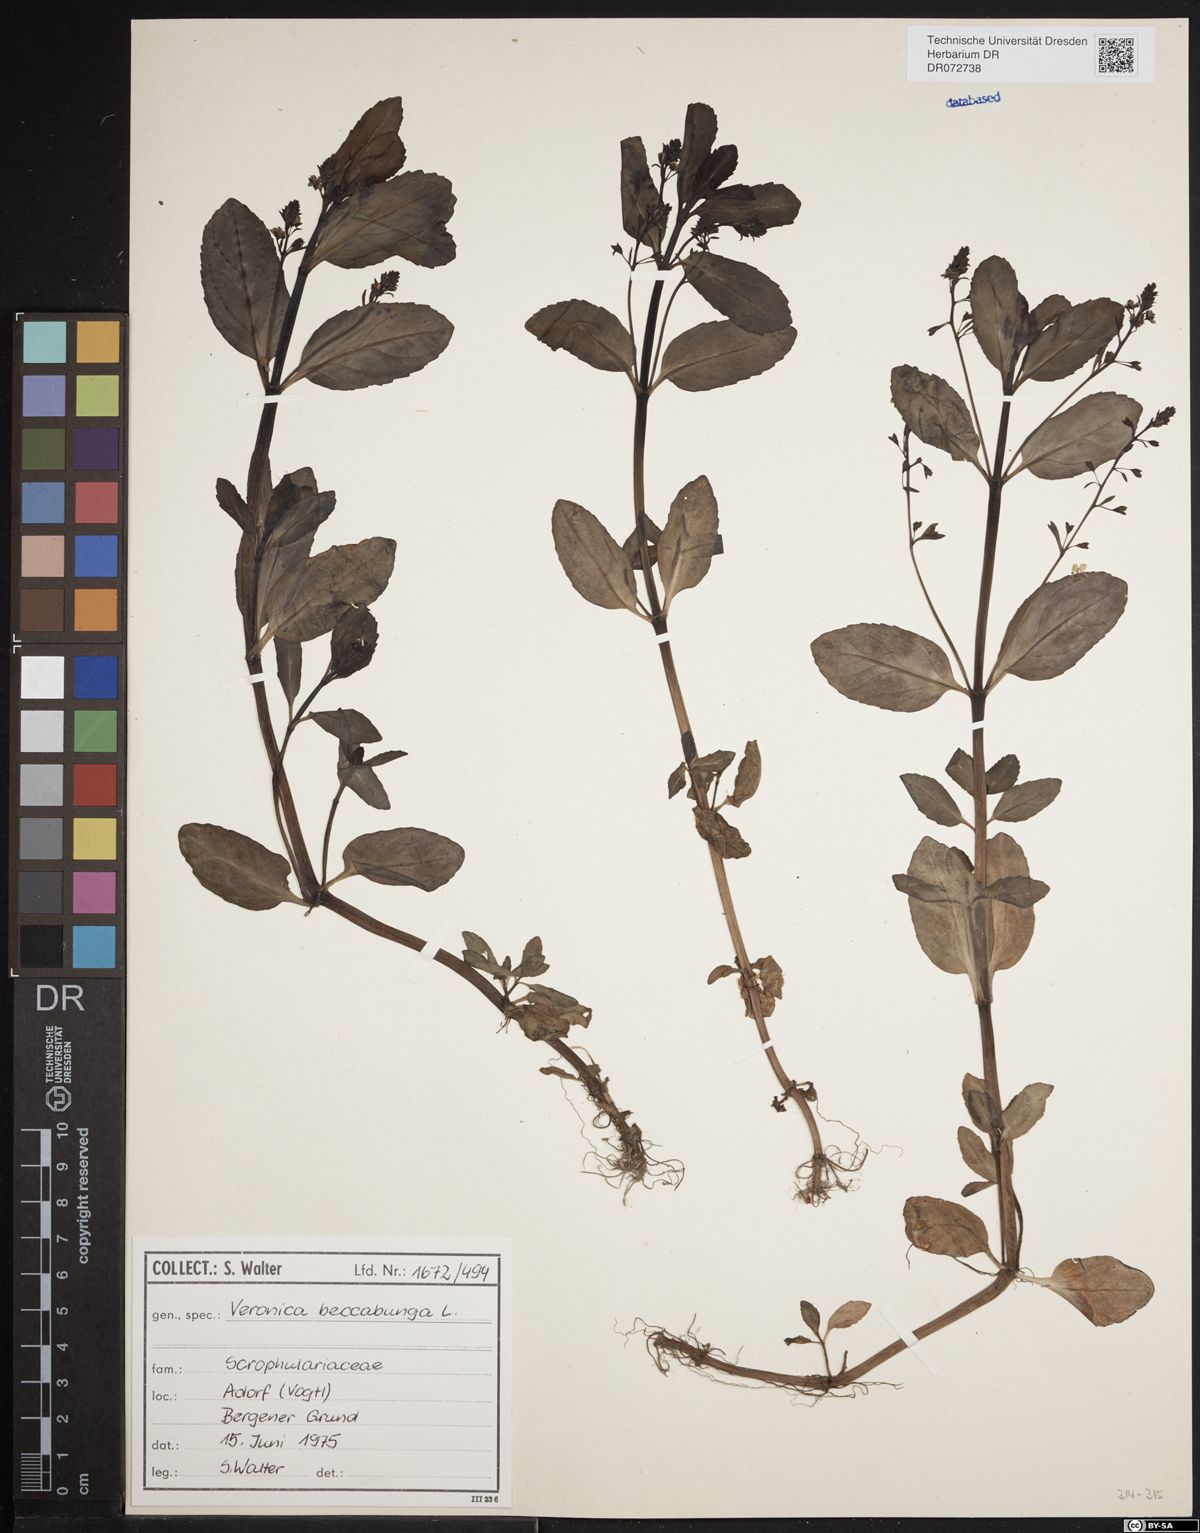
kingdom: Plantae
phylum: Tracheophyta
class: Magnoliopsida
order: Lamiales
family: Plantaginaceae
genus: Veronica
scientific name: Veronica beccabunga
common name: Brooklime
